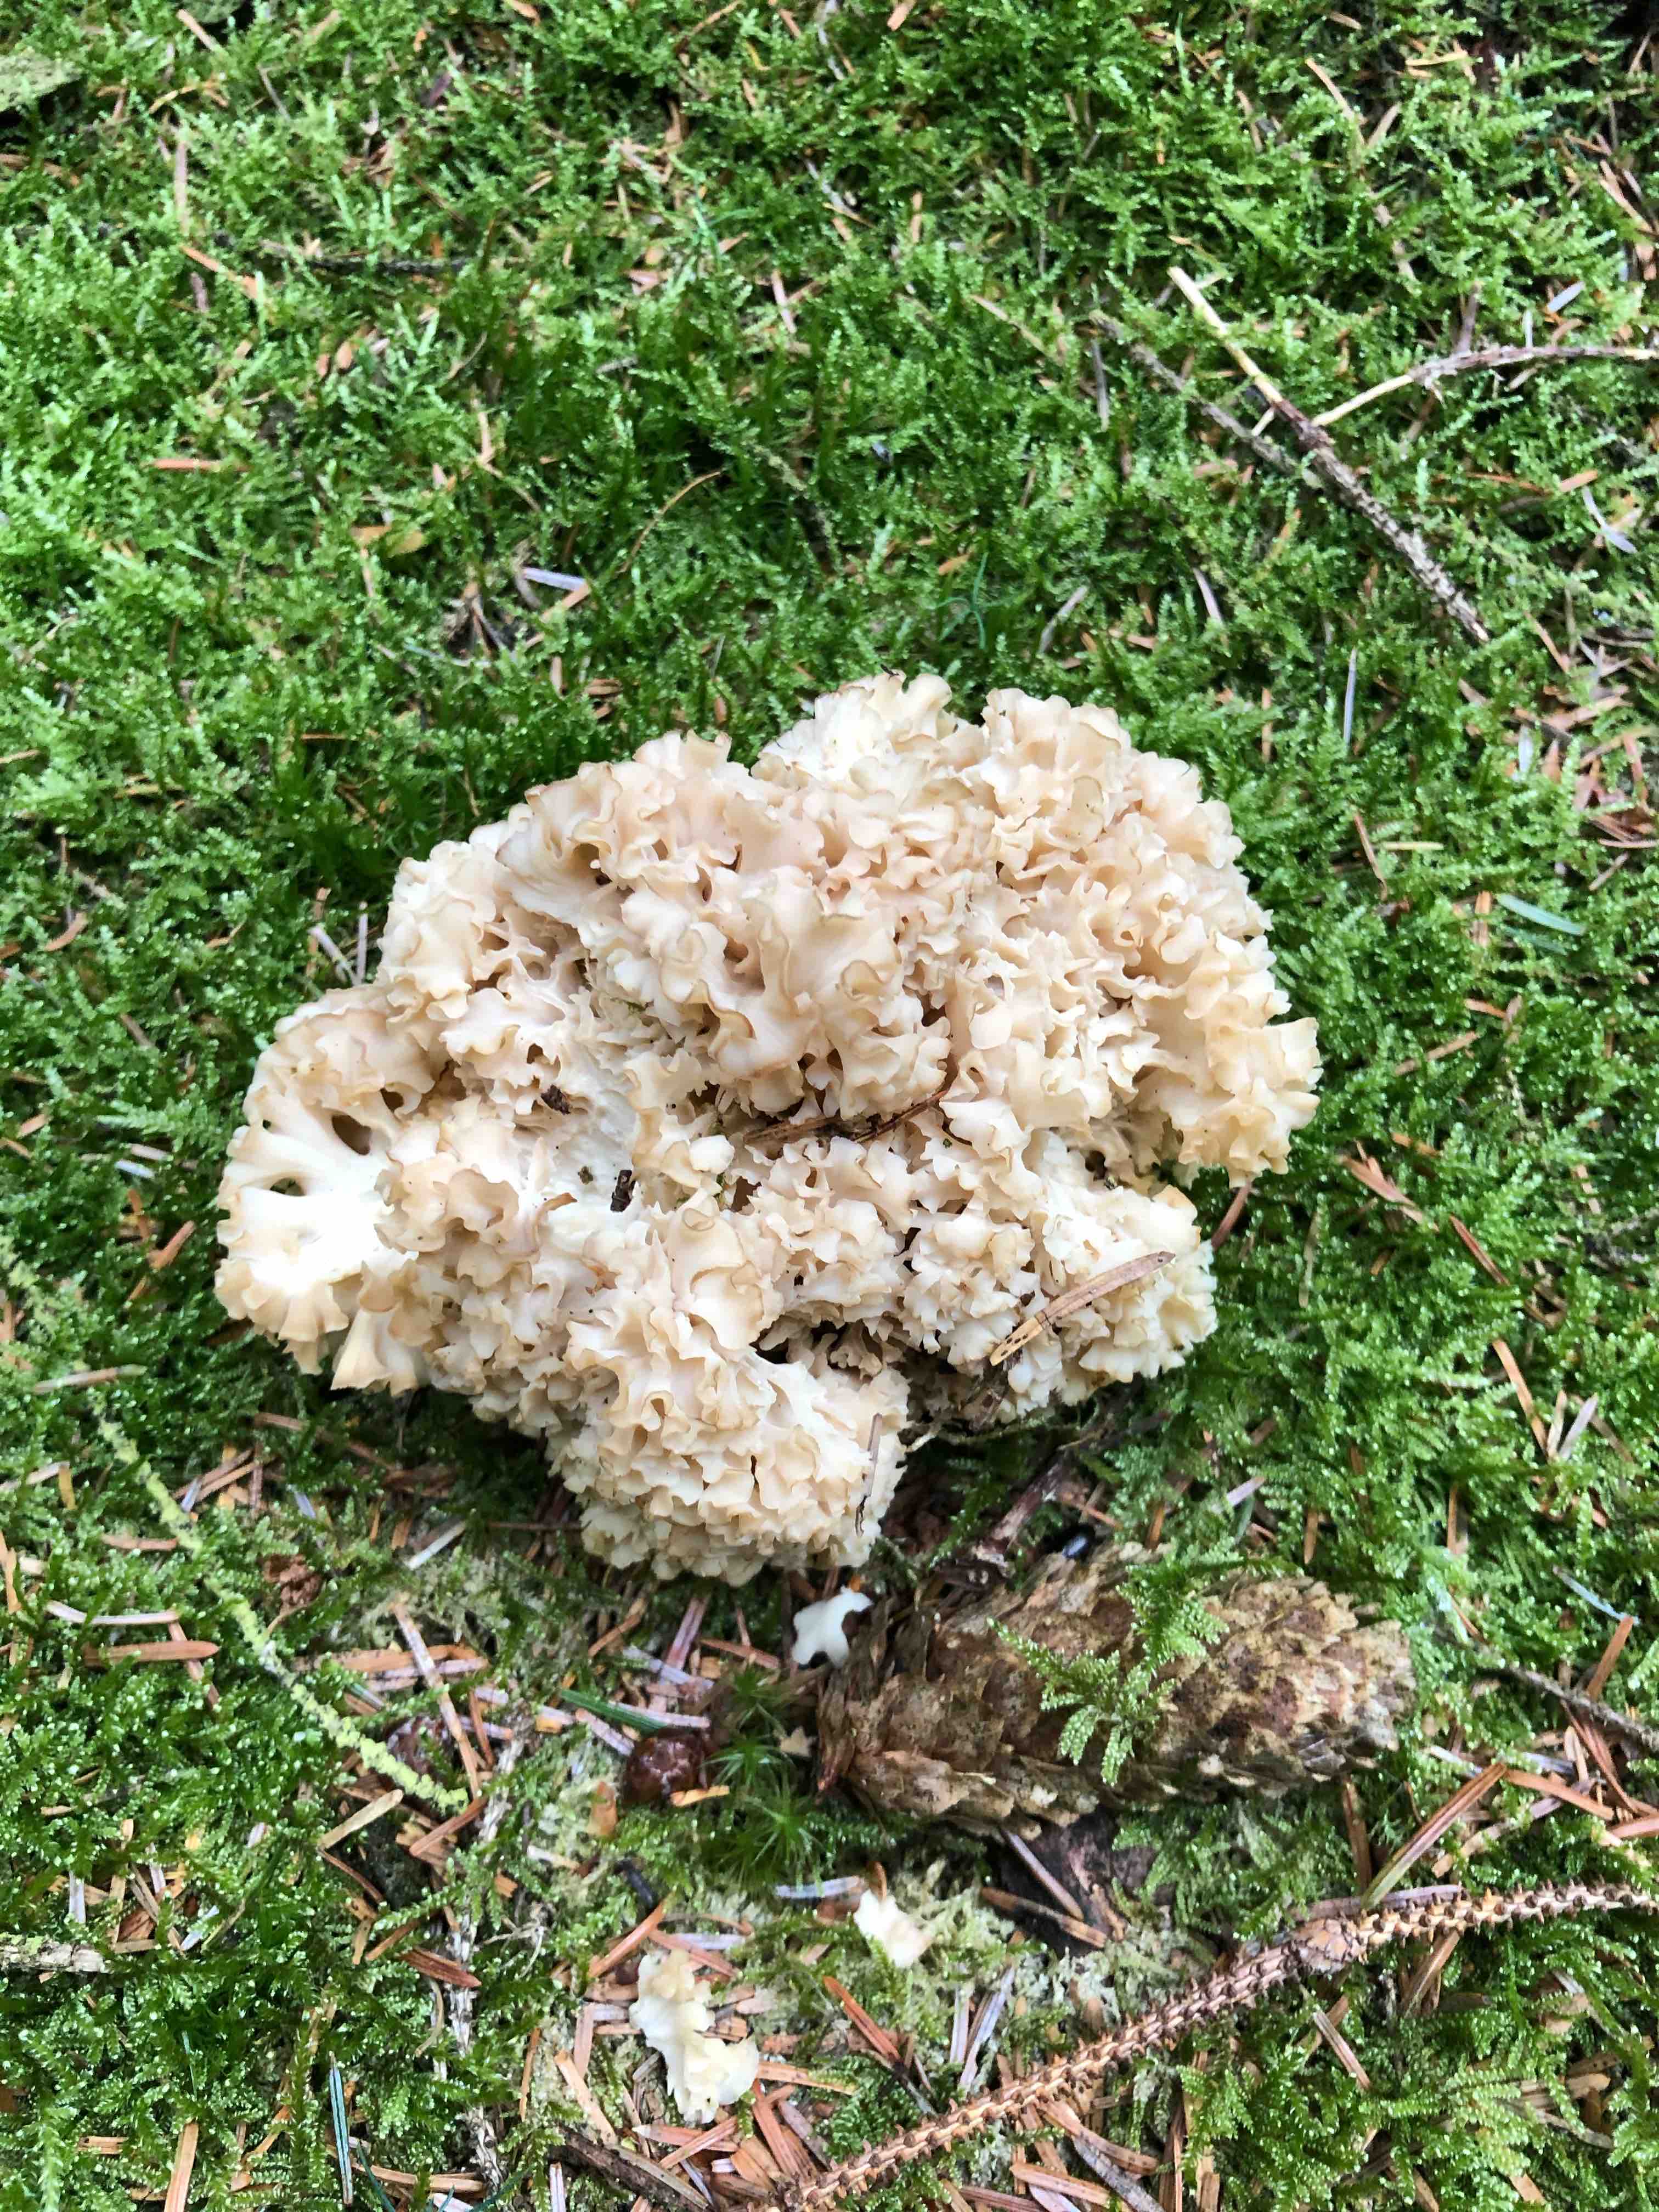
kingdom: Fungi
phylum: Basidiomycota
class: Agaricomycetes
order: Polyporales
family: Sparassidaceae
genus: Sparassis
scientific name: Sparassis crispa
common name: kruset blomkålssvamp
